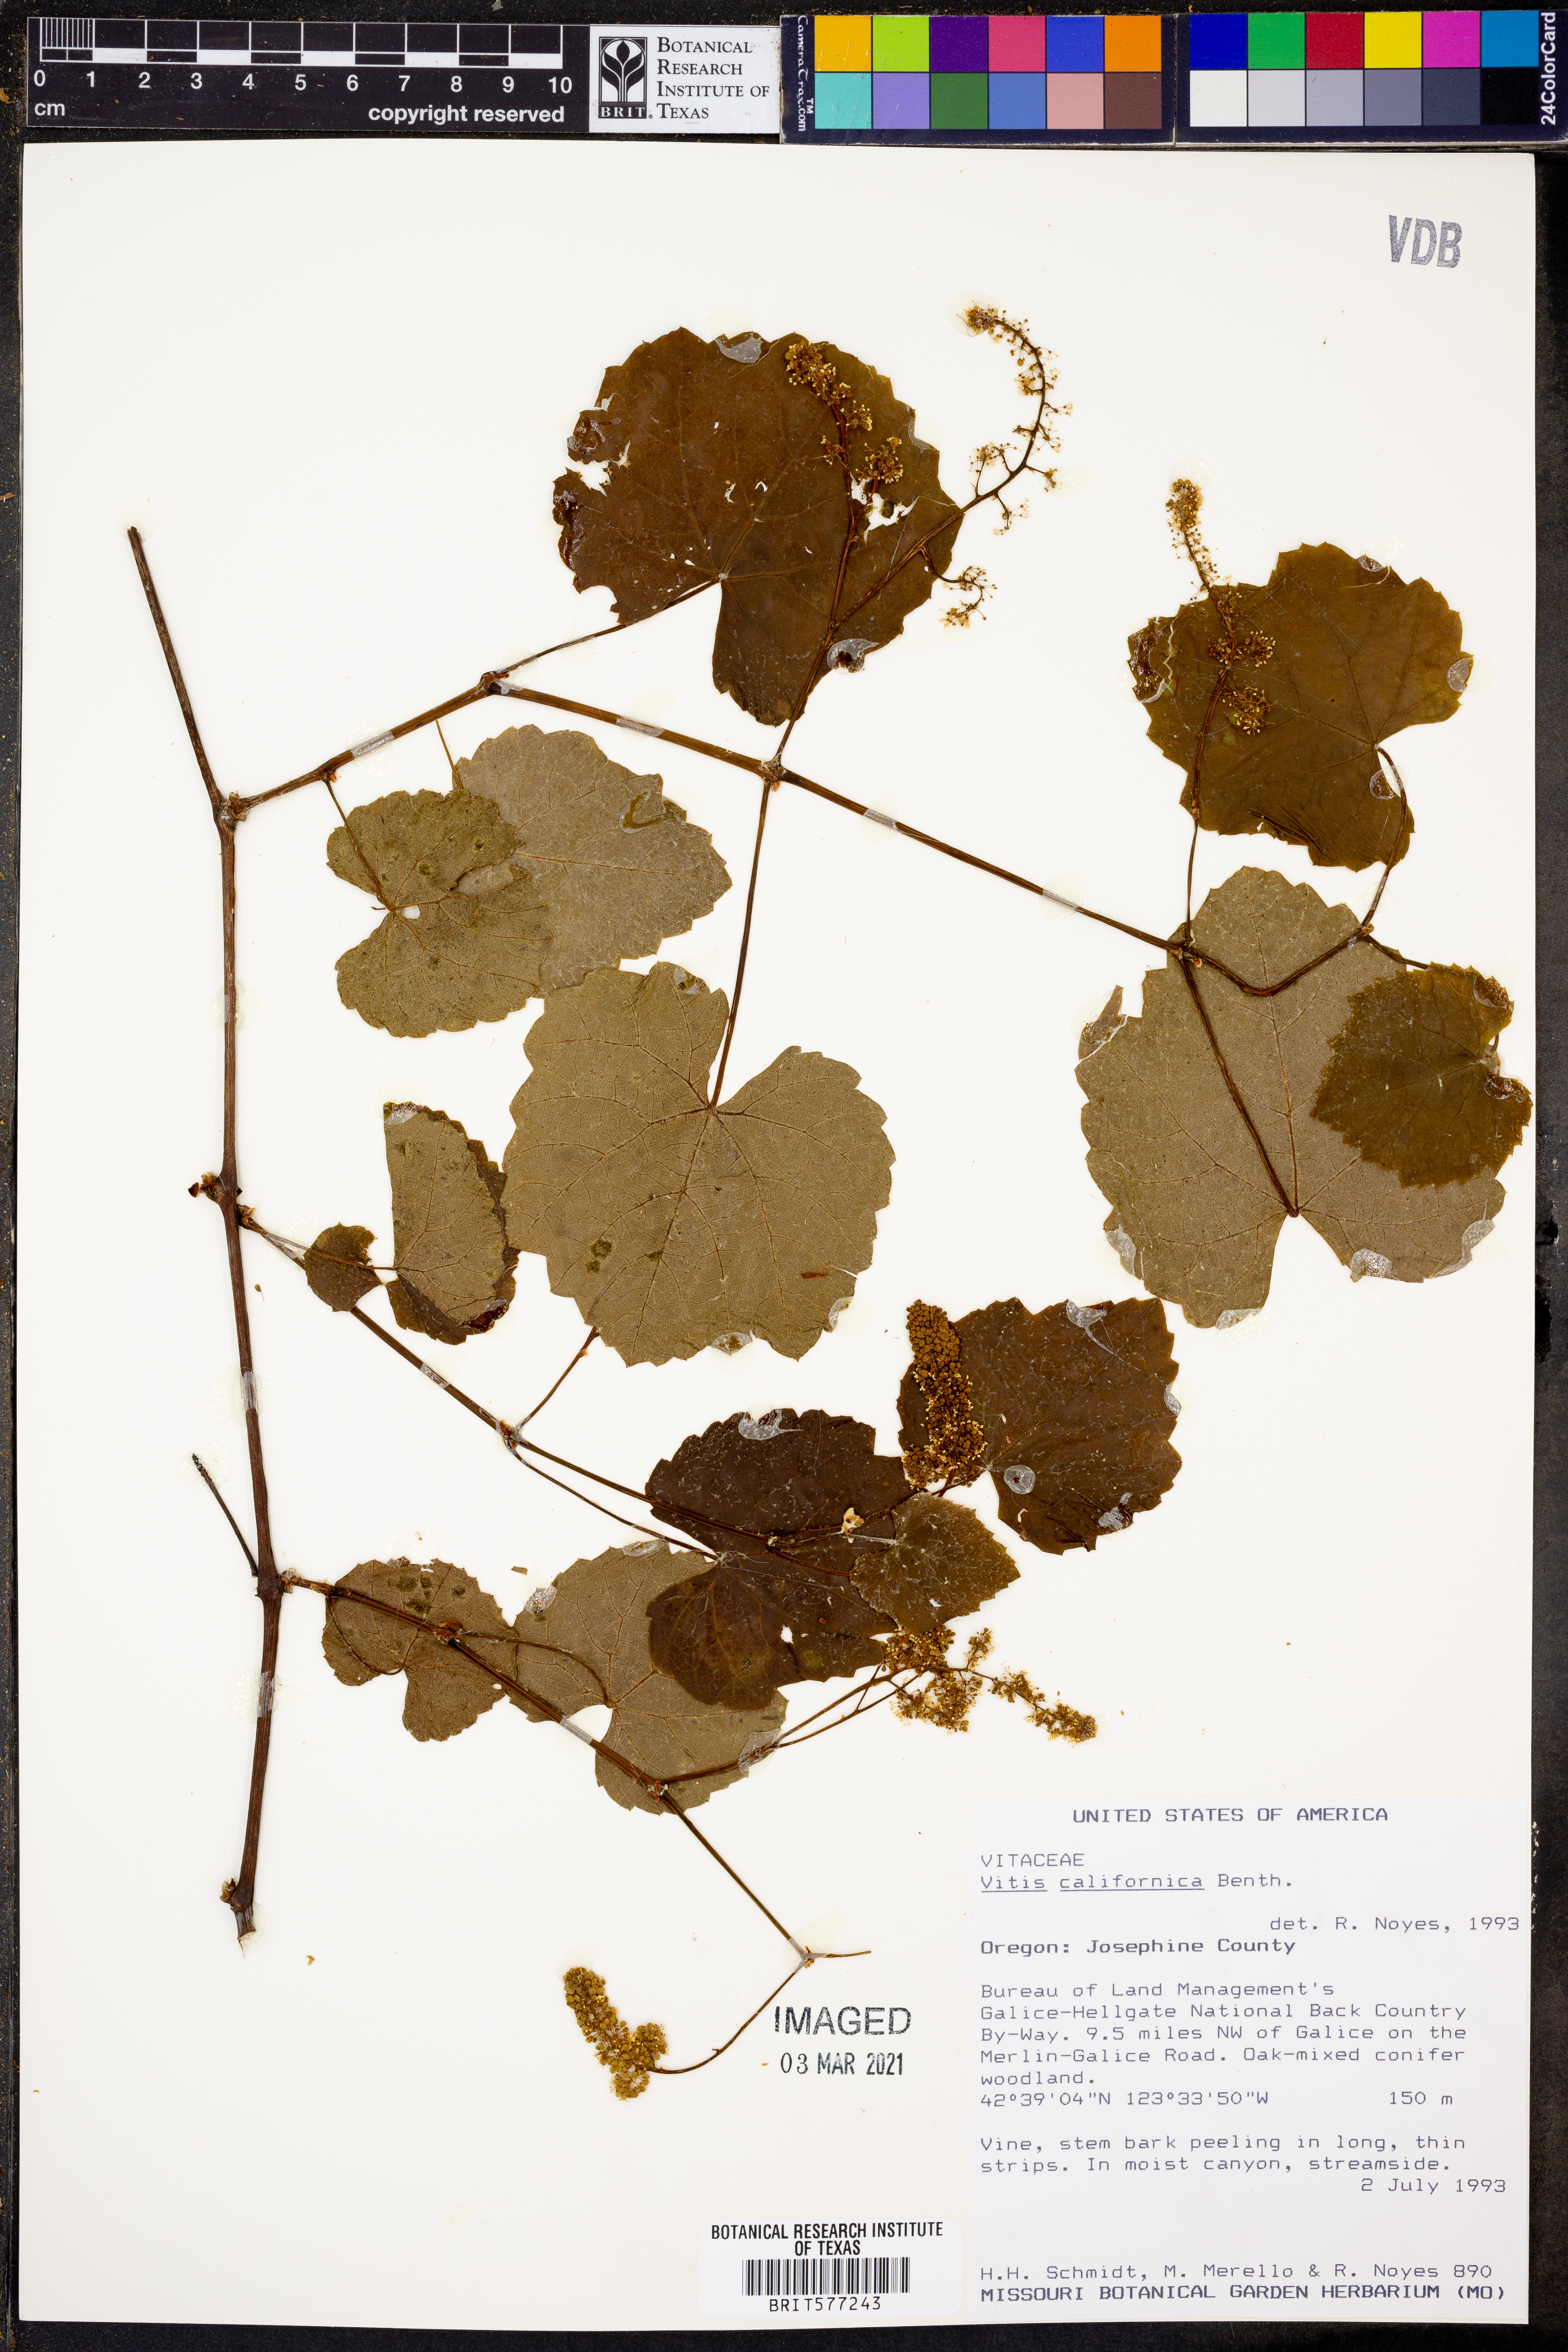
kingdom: Plantae
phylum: Tracheophyta
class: Magnoliopsida
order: Vitales
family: Vitaceae
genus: Vitis
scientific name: Vitis californica
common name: California wild grape
